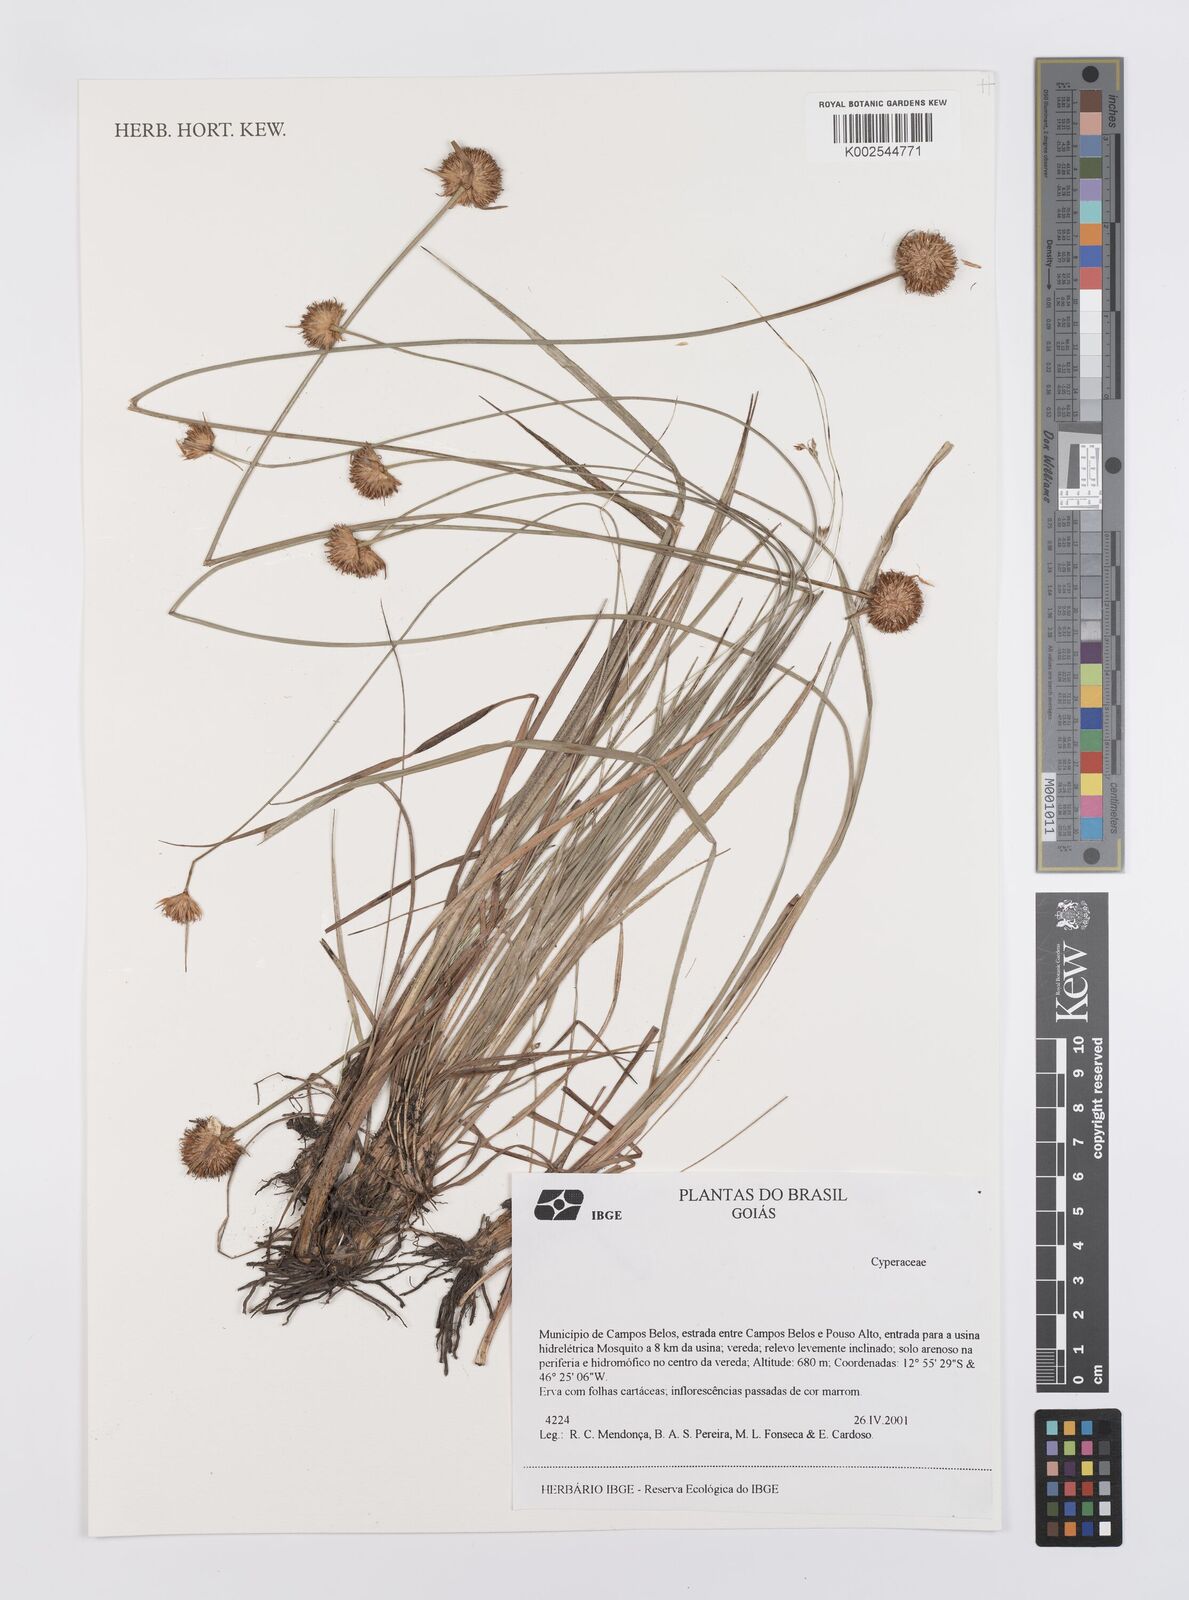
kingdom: Plantae
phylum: Tracheophyta
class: Liliopsida
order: Poales
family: Cyperaceae
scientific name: Cyperaceae
